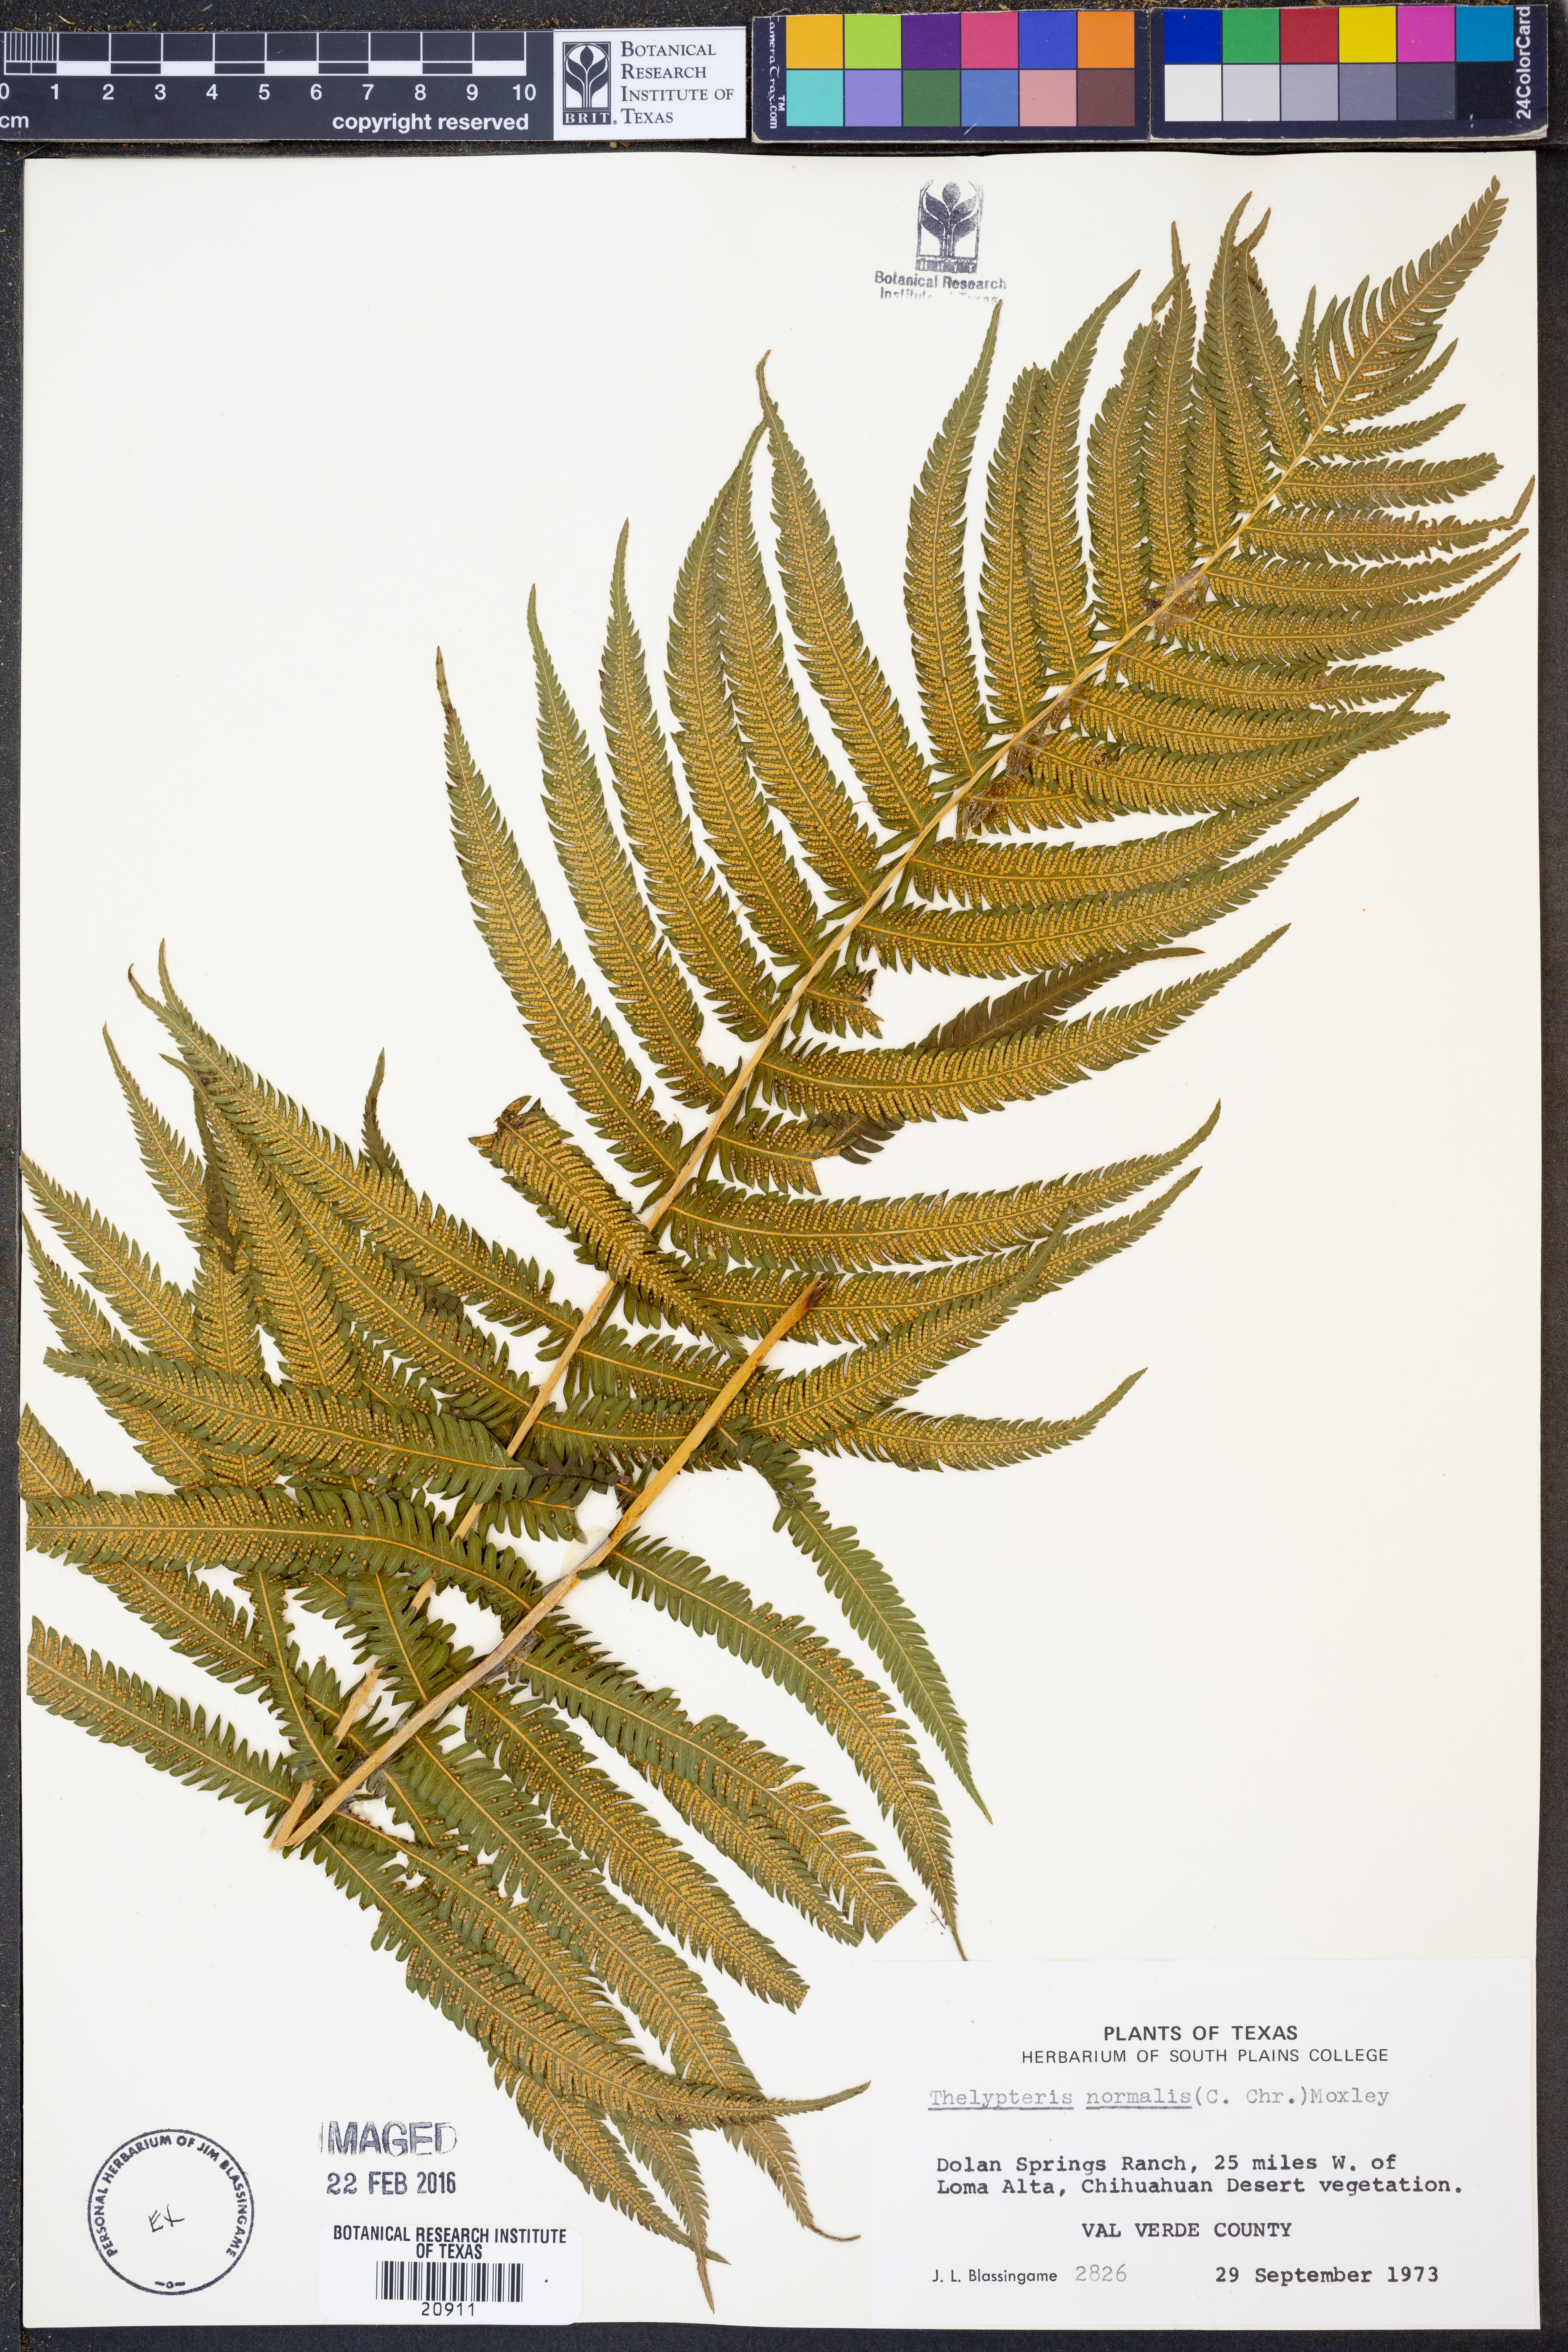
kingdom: Plantae
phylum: Tracheophyta
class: Polypodiopsida
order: Polypodiales
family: Thelypteridaceae
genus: Pelazoneuron
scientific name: Pelazoneuron kunthii
